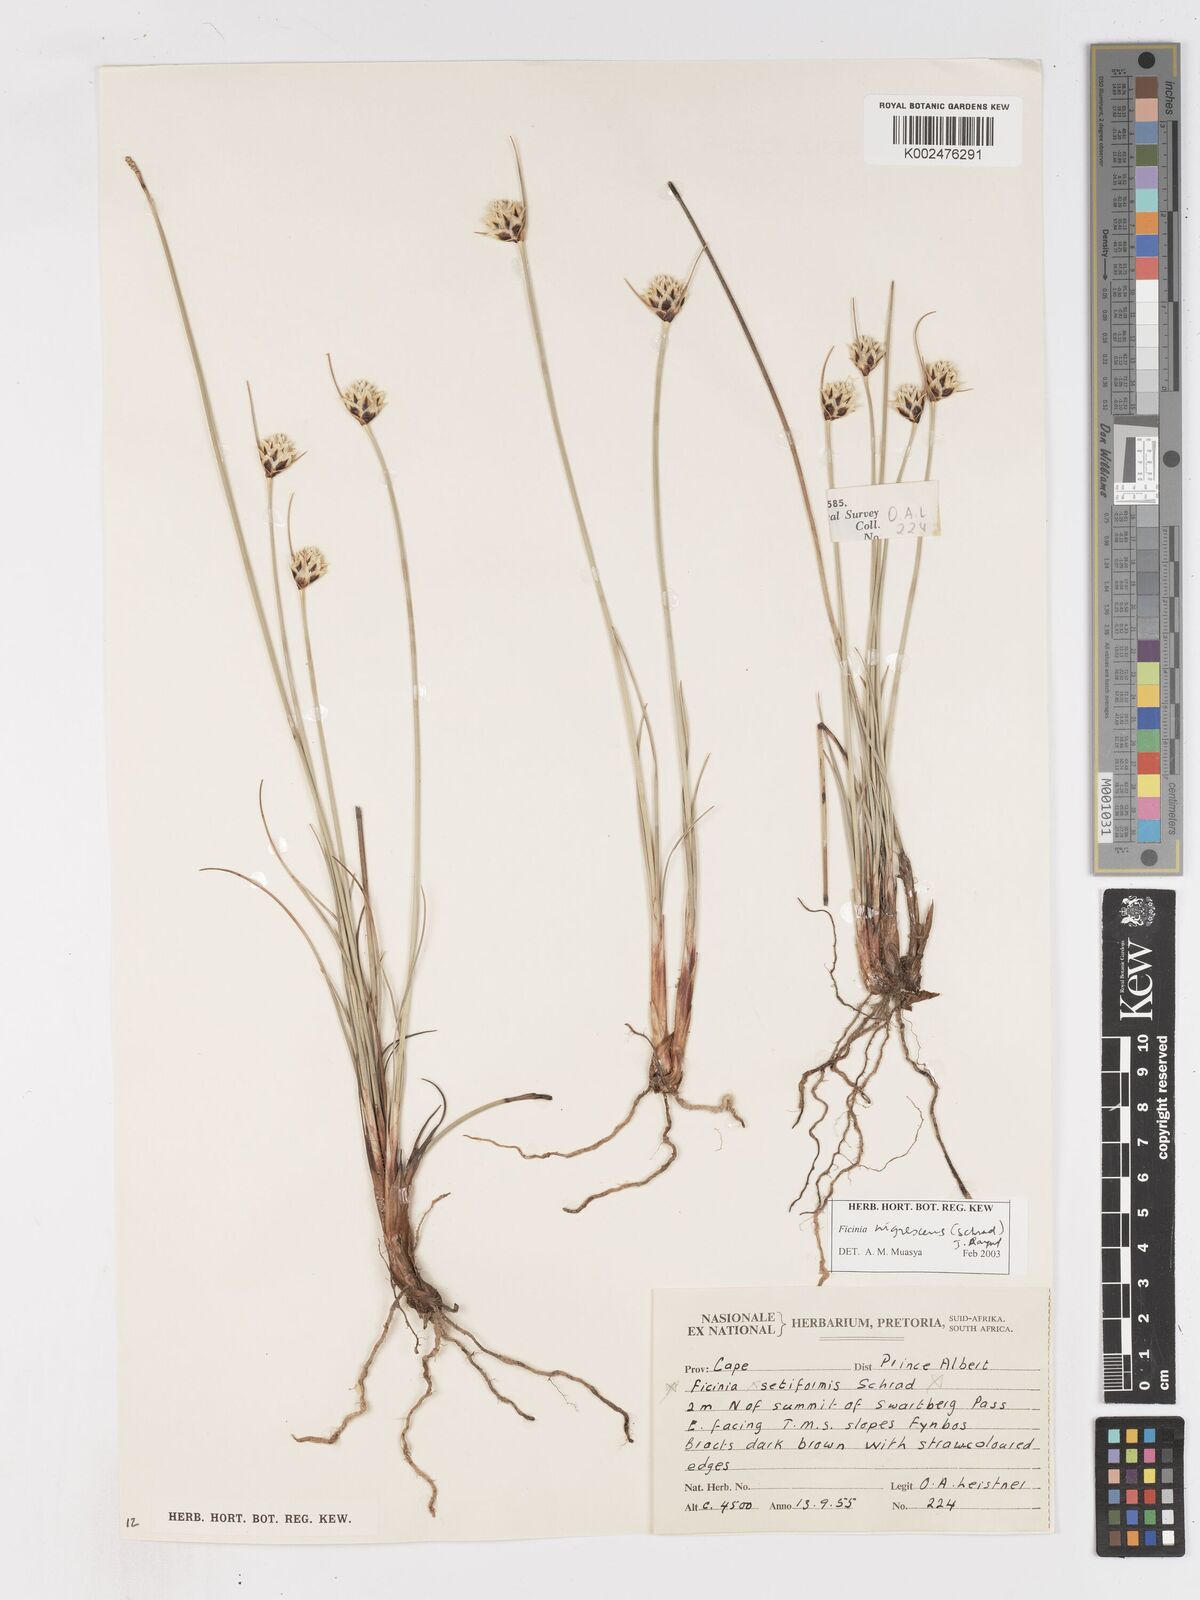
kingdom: Plantae
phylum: Tracheophyta
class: Liliopsida
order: Poales
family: Cyperaceae
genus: Ficinia
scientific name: Ficinia nigrescens
